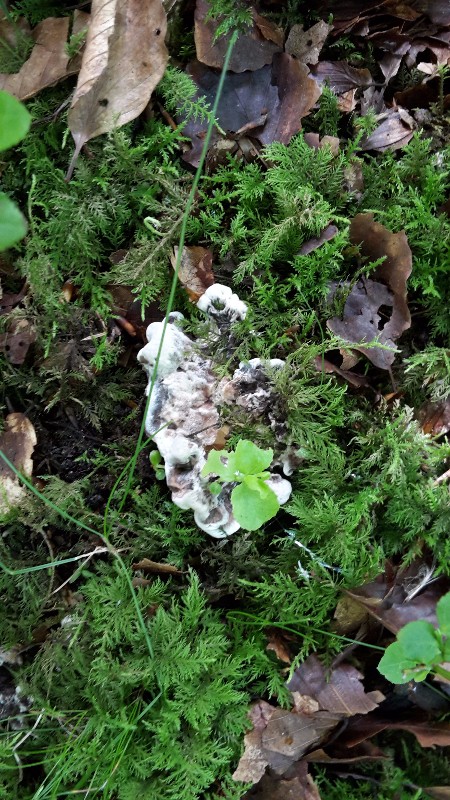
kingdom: Fungi
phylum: Basidiomycota
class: Agaricomycetes
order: Thelephorales
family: Thelephoraceae
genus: Phellodon
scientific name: Phellodon confluens
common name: pjaltet duftpigsvamp
